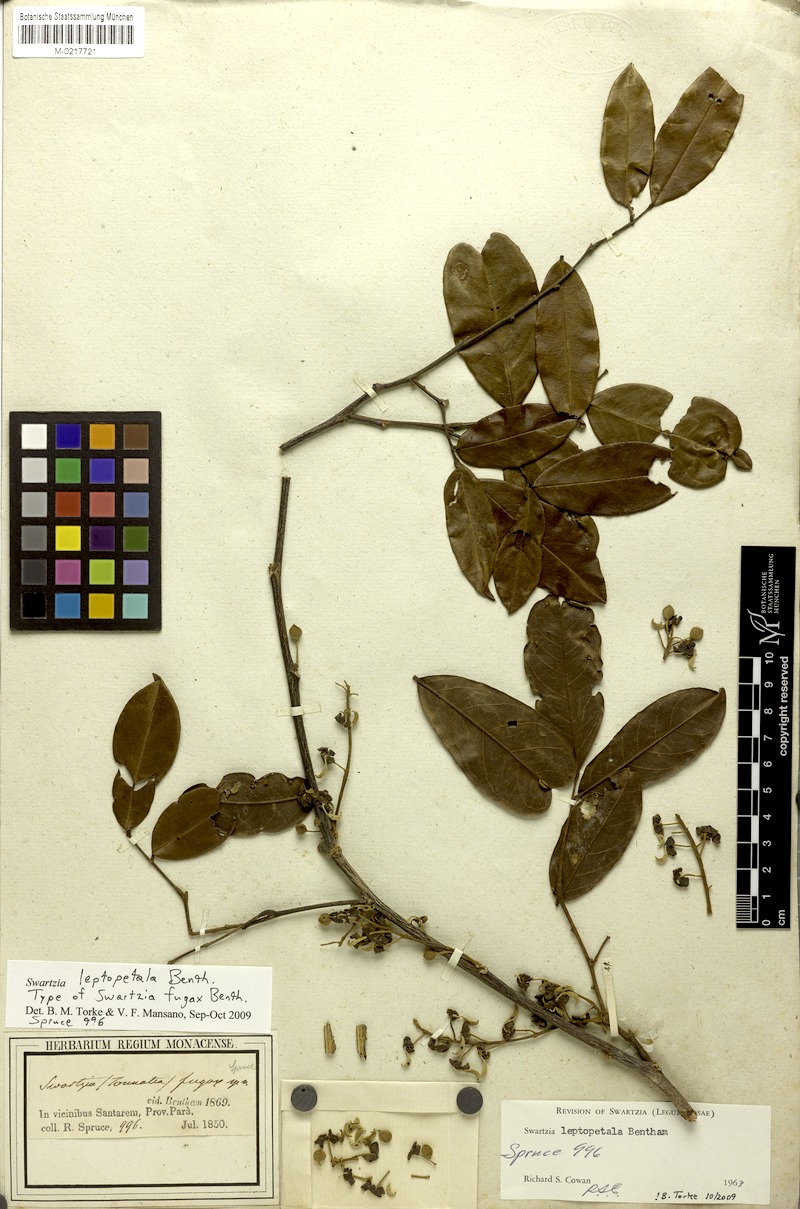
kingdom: Plantae
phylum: Tracheophyta
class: Magnoliopsida
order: Fabales
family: Fabaceae
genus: Swartzia
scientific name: Swartzia leptopetala
